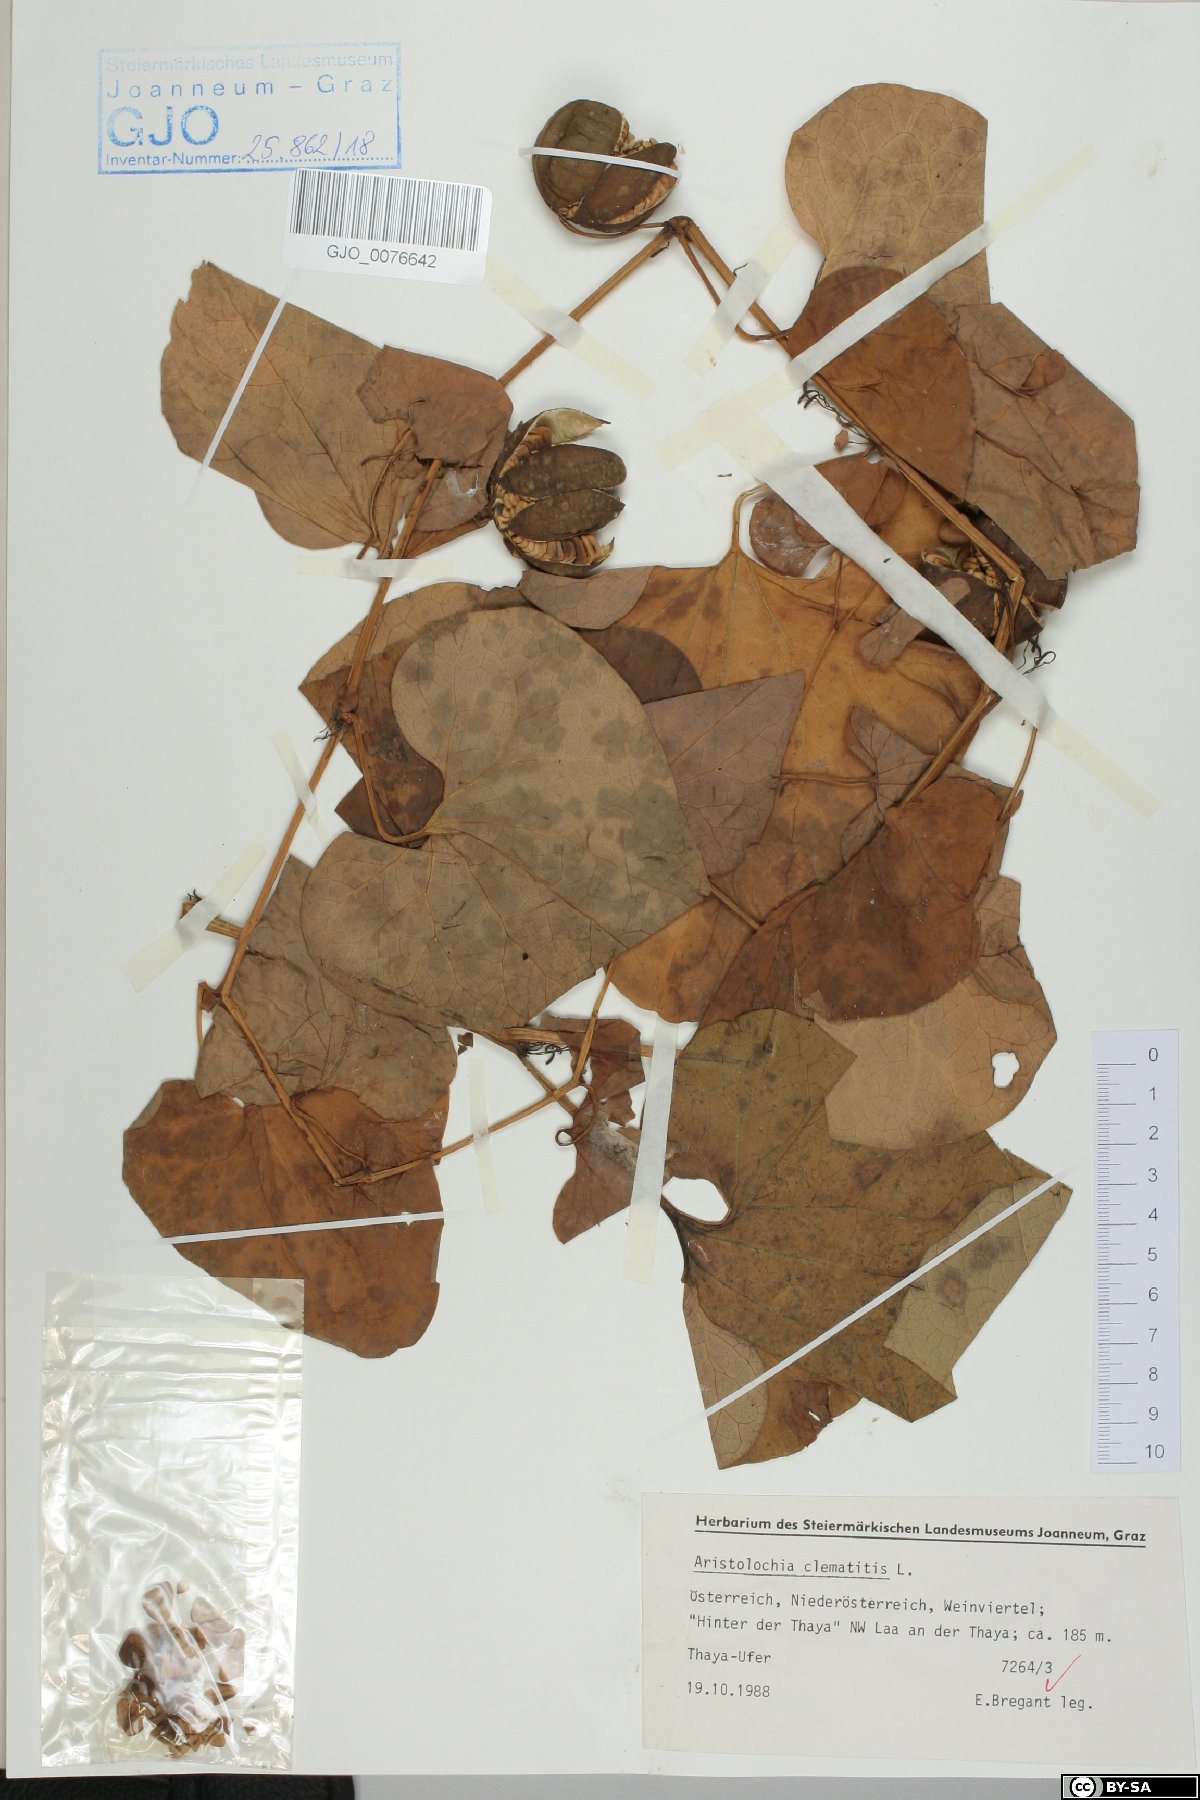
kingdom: Plantae
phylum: Tracheophyta
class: Magnoliopsida
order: Piperales
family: Aristolochiaceae
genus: Aristolochia
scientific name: Aristolochia clematitis
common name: Birthwort
